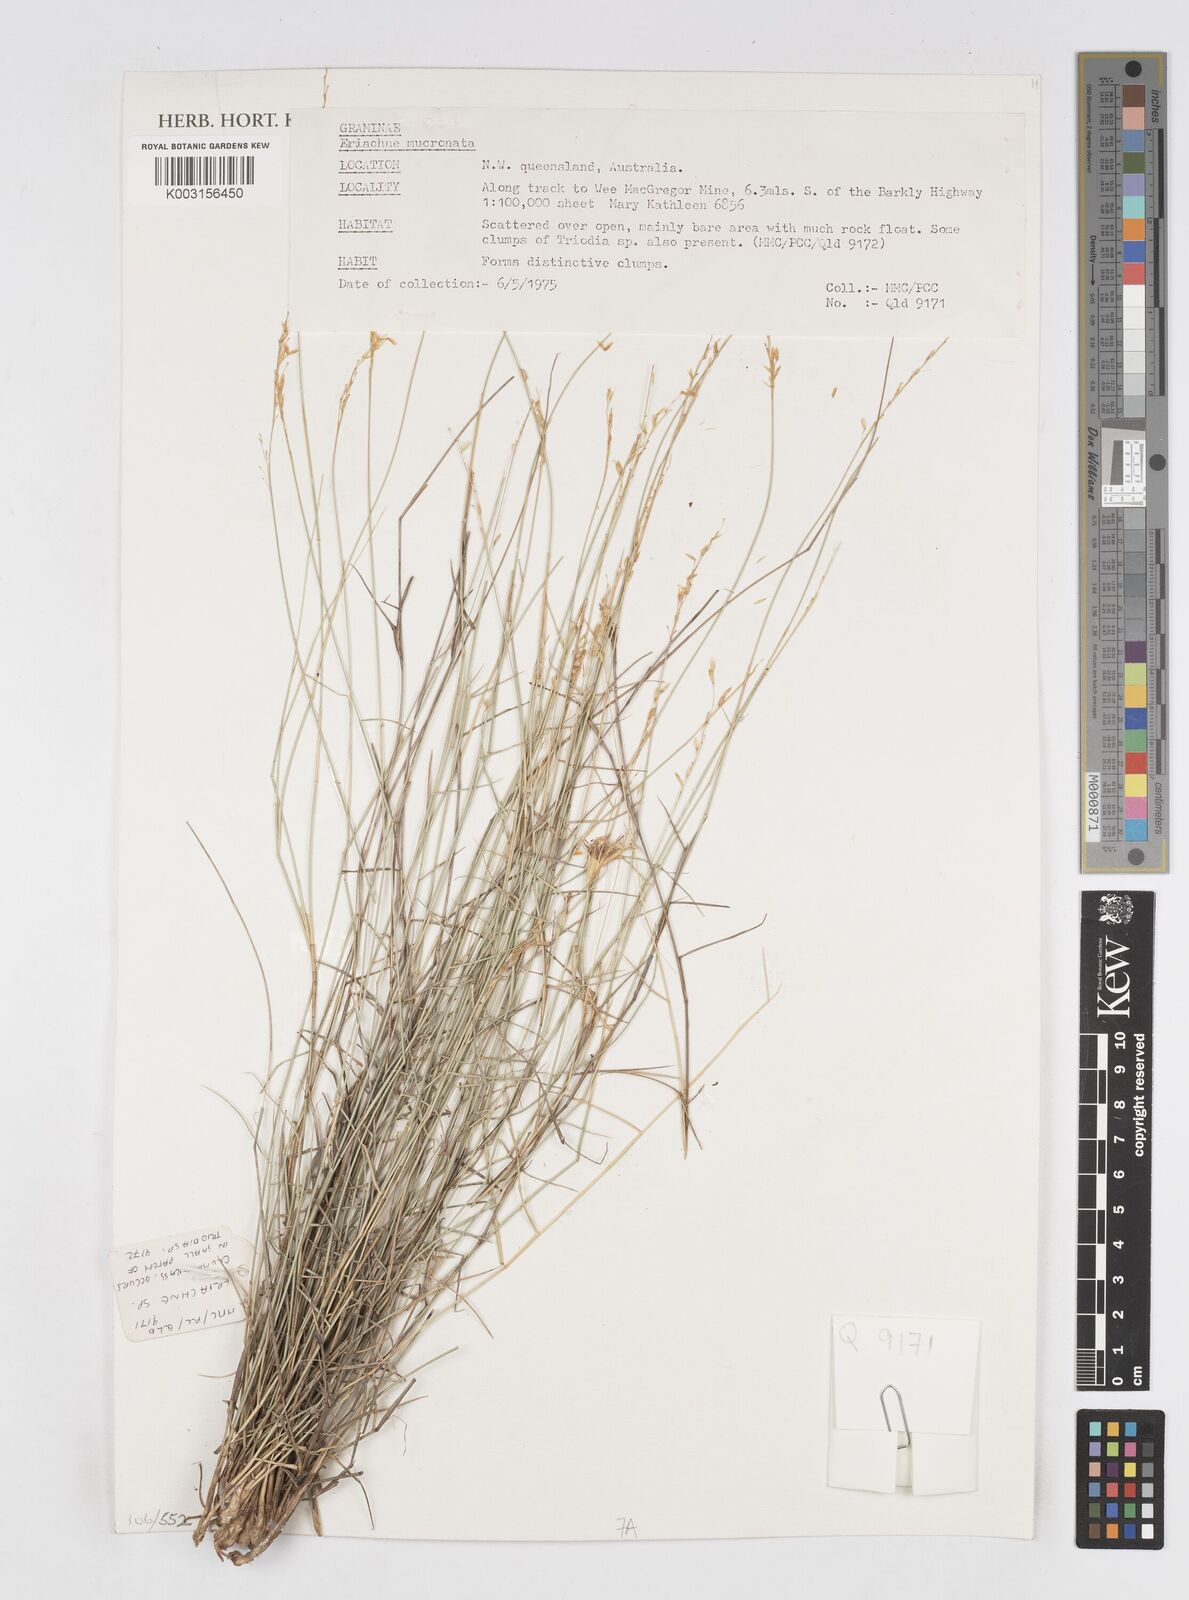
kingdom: Plantae
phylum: Tracheophyta
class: Liliopsida
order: Poales
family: Poaceae
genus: Eriachne
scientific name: Eriachne mucronata
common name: Mountain wanderrie grass
